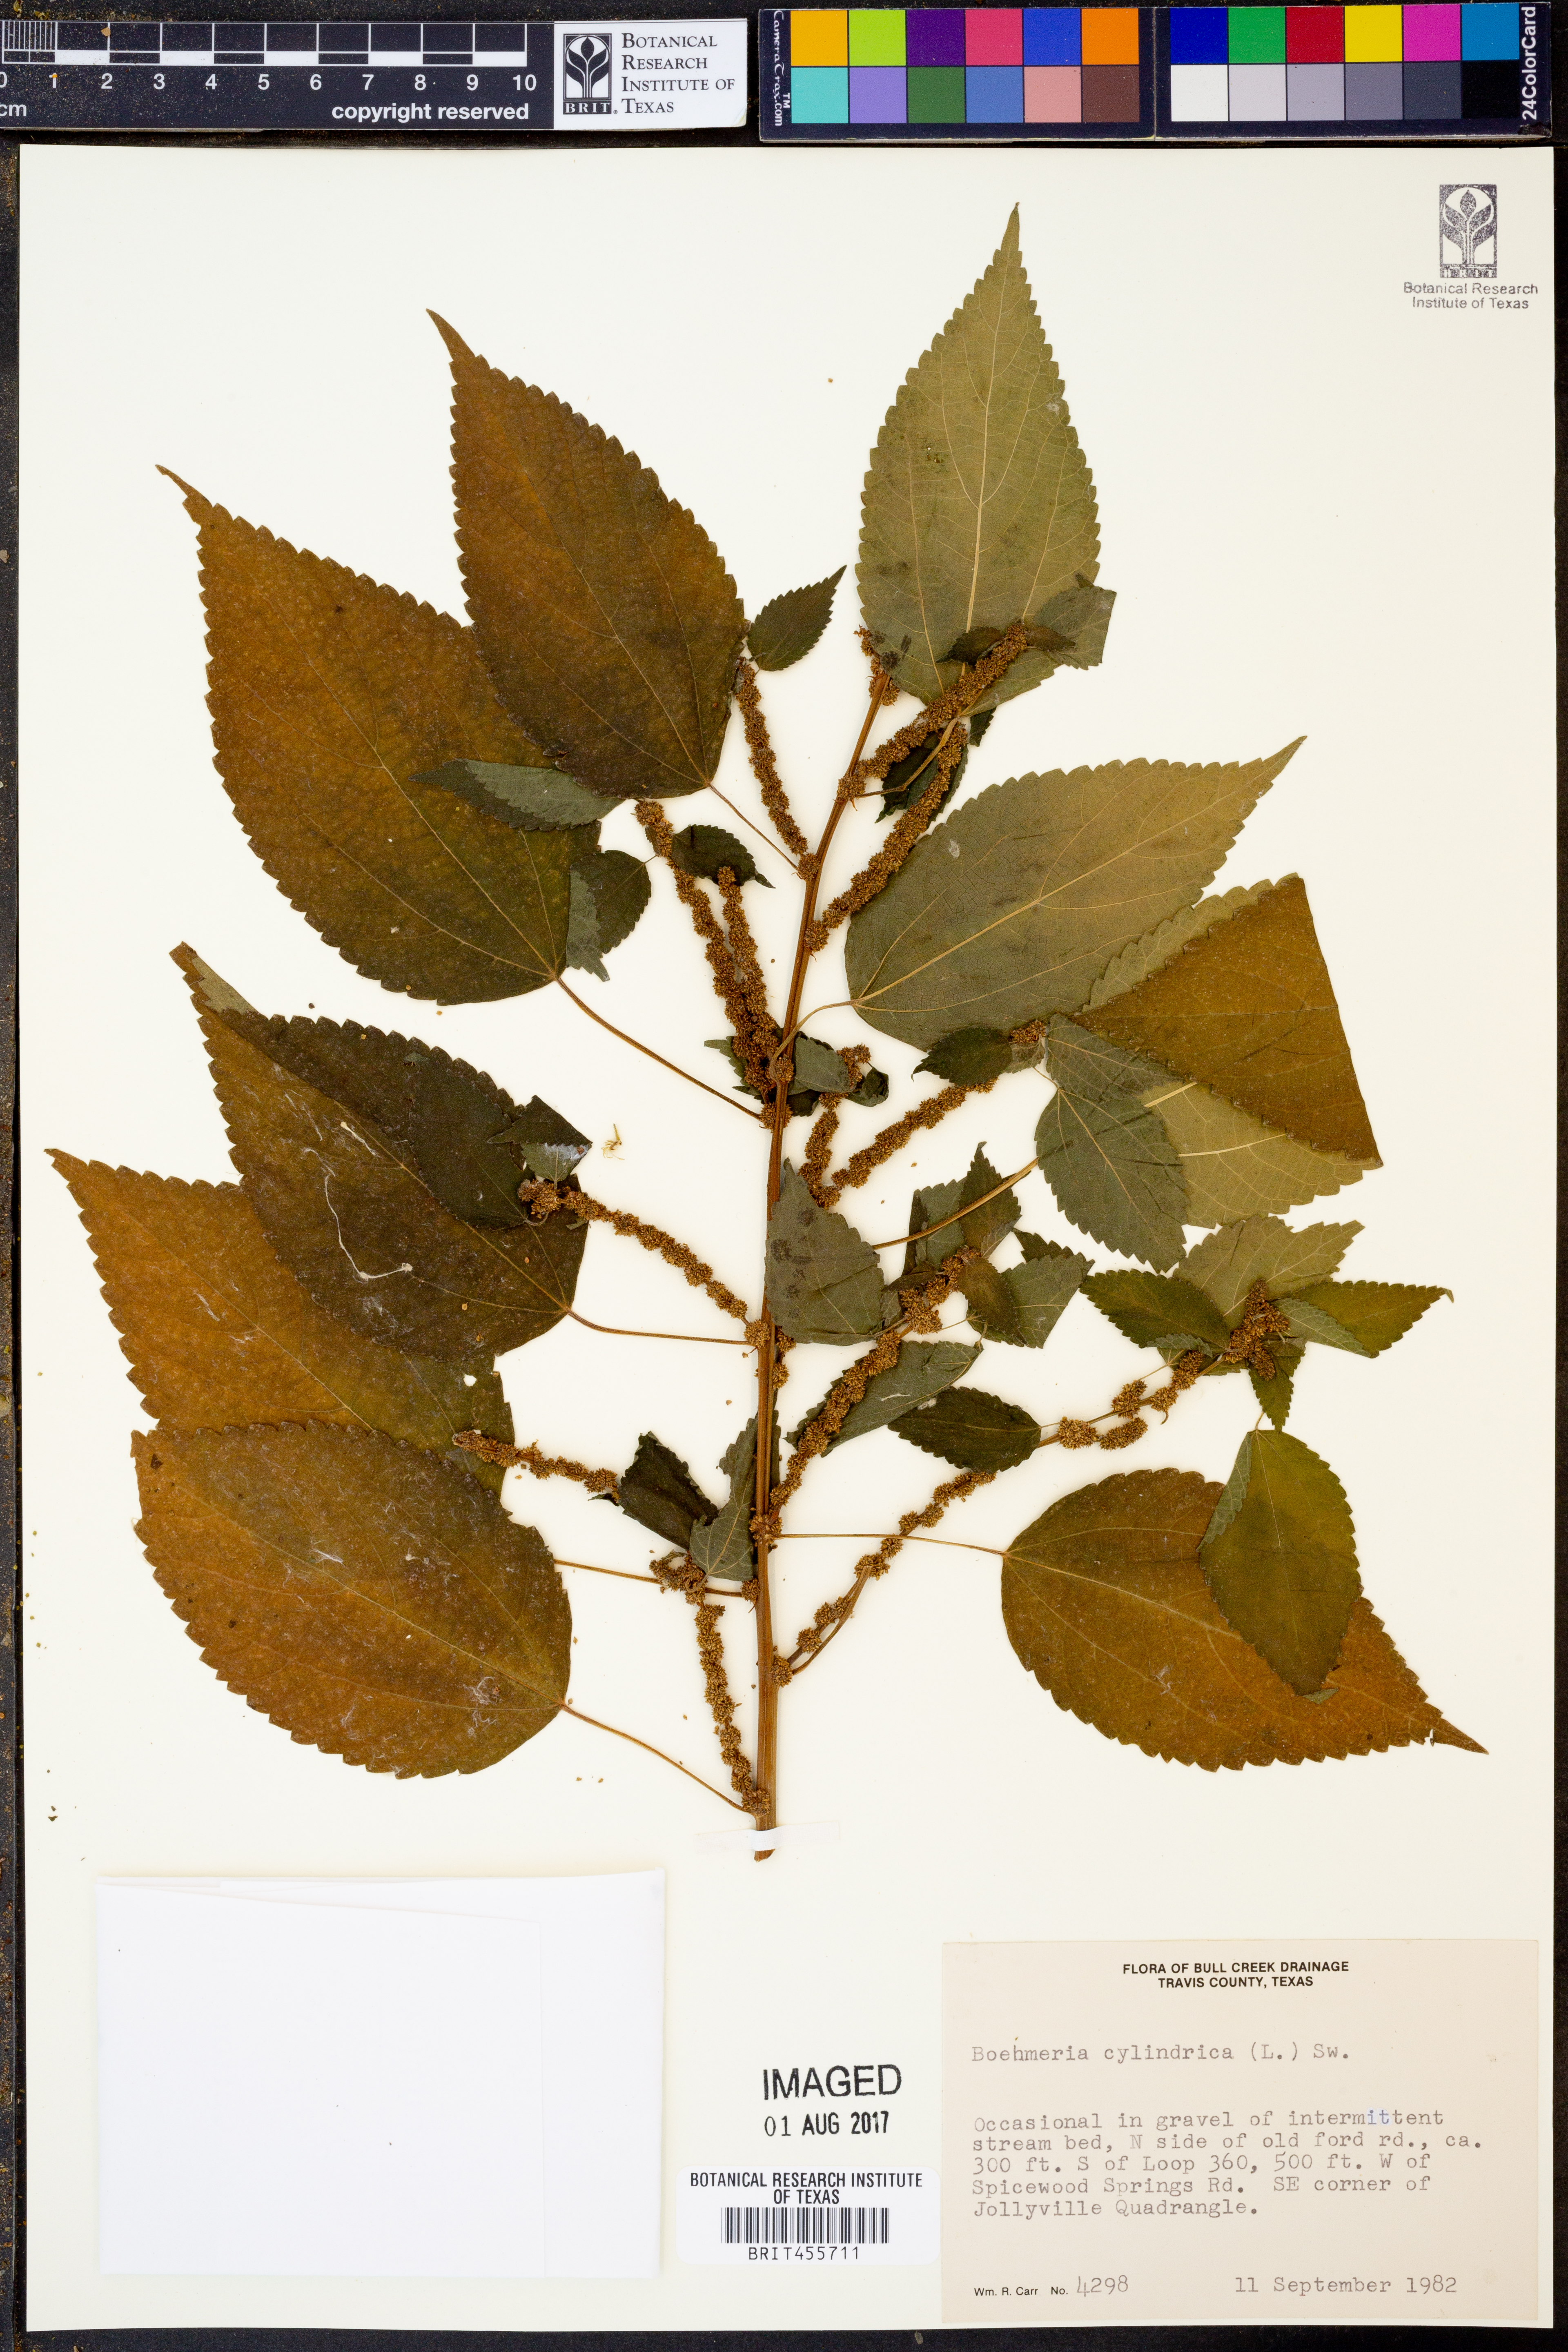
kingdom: Plantae
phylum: Tracheophyta
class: Magnoliopsida
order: Rosales
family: Urticaceae
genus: Boehmeria
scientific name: Boehmeria cylindrica
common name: Bog-hemp
